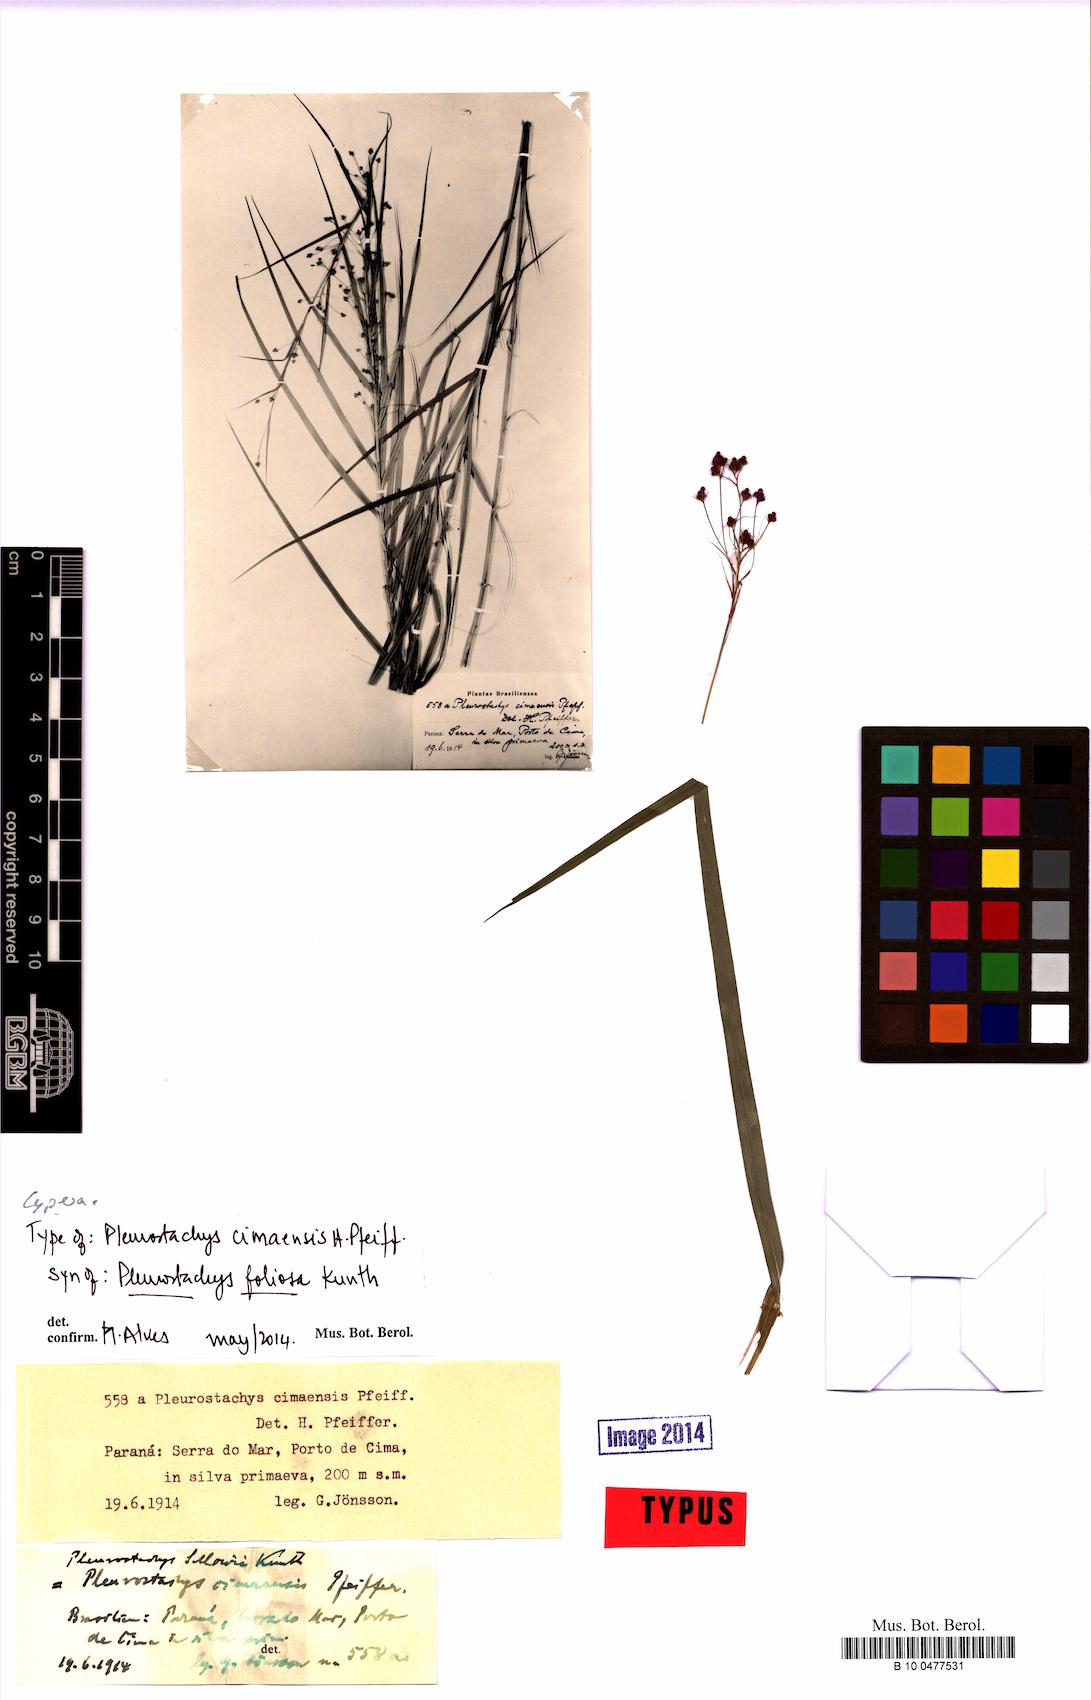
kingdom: Plantae
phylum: Tracheophyta
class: Liliopsida
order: Poales
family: Cyperaceae
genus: Rhynchospora
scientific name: Rhynchospora foliosa
